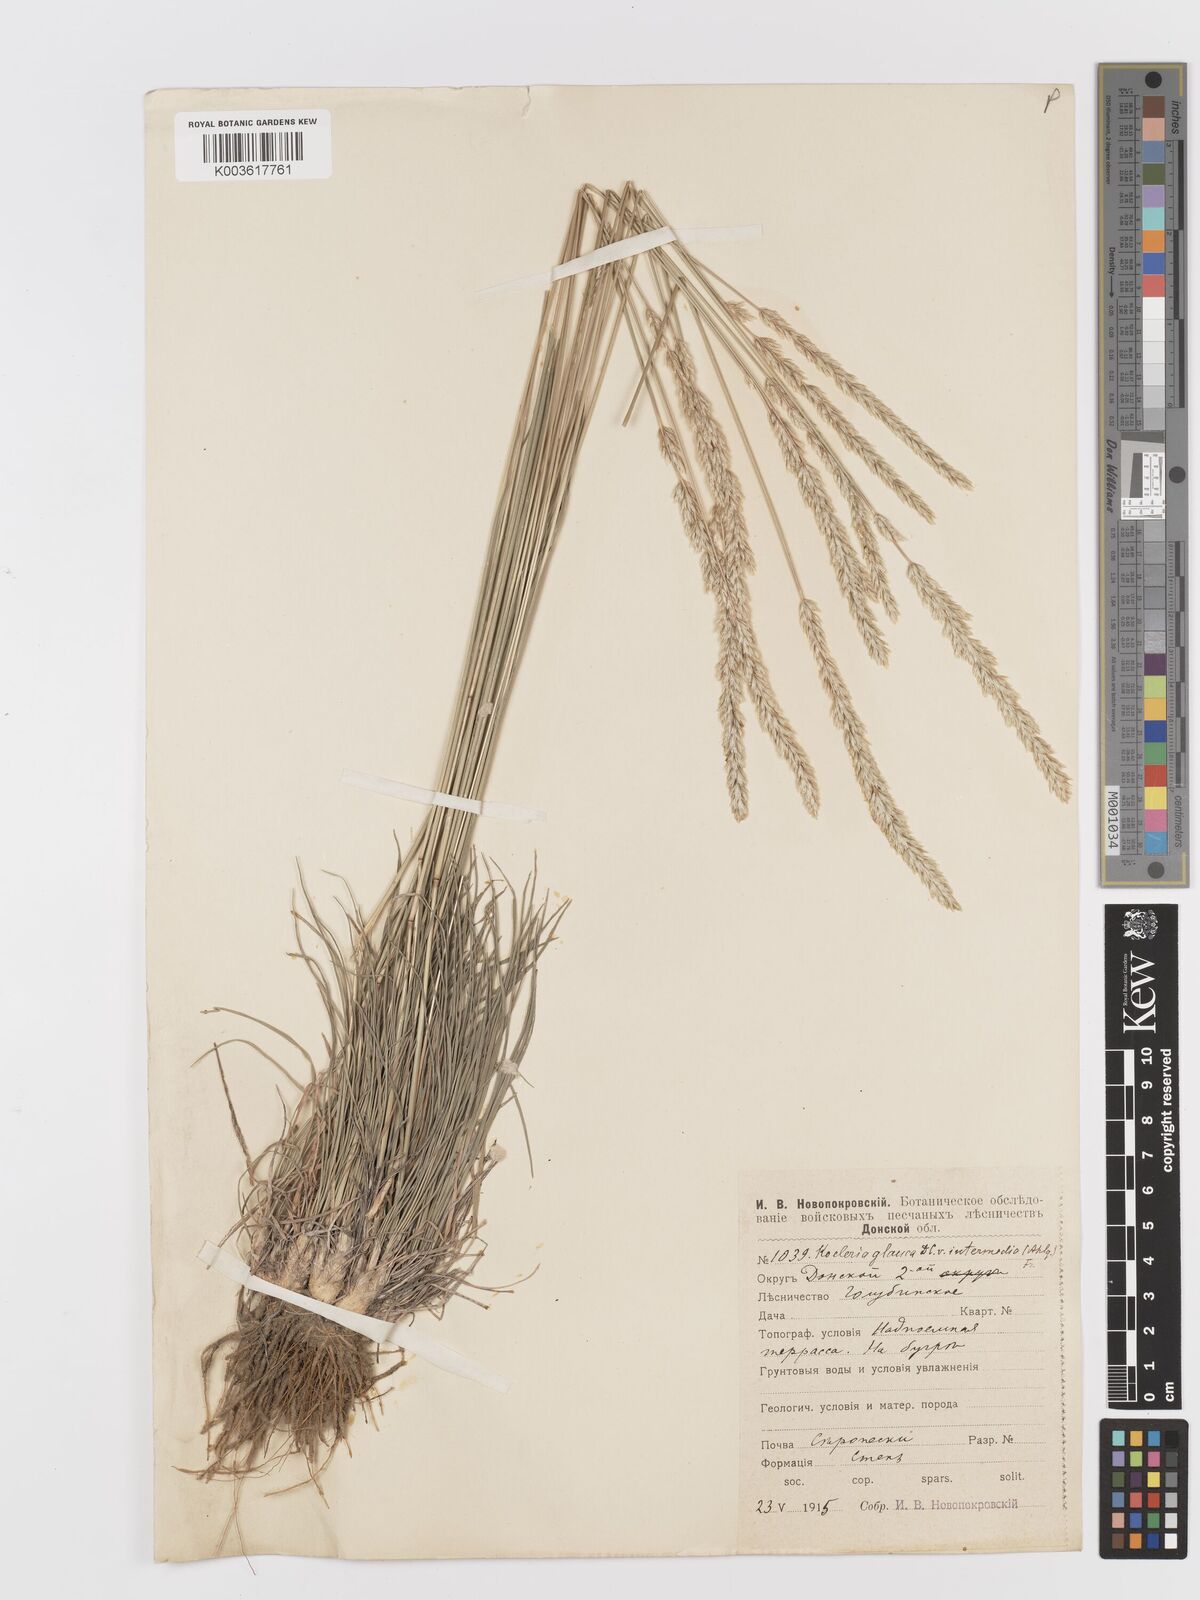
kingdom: Plantae
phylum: Tracheophyta
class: Liliopsida
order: Poales
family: Poaceae
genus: Koeleria
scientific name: Koeleria glauca
